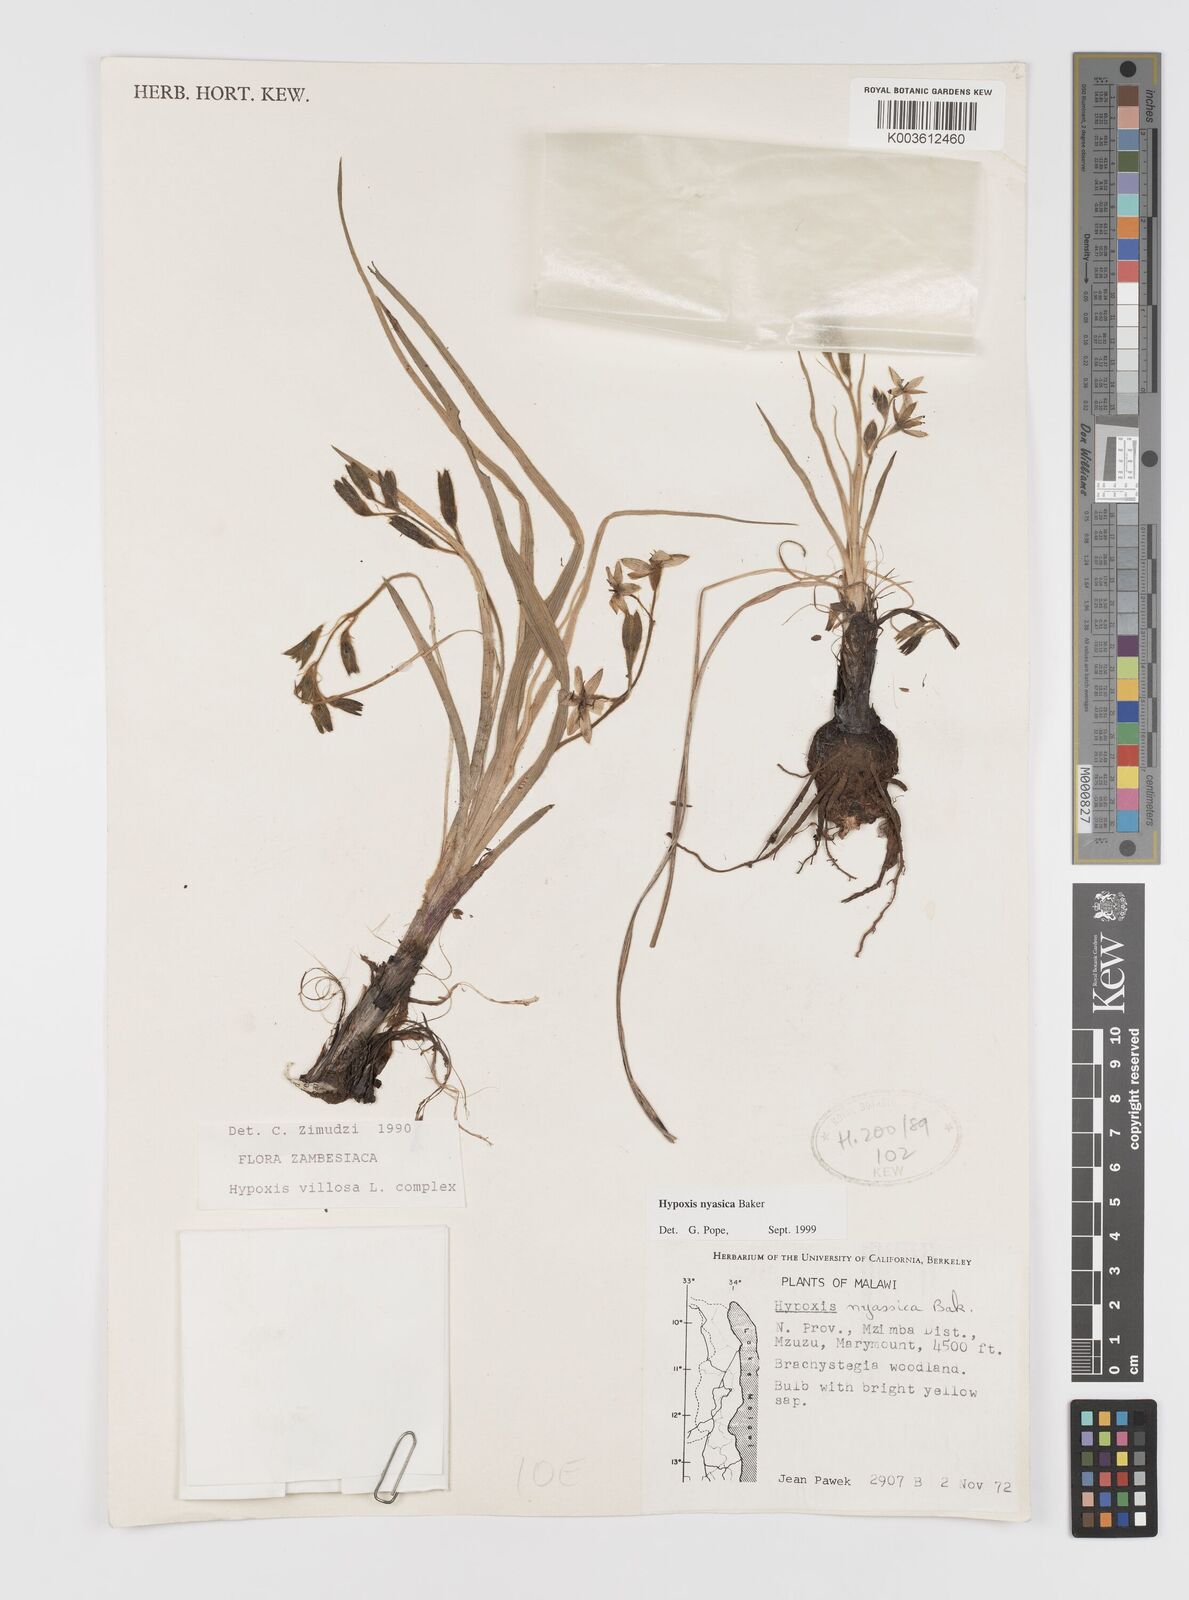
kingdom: Plantae
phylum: Tracheophyta
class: Liliopsida
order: Asparagales
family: Hypoxidaceae
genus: Hypoxis
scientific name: Hypoxis nyasica
